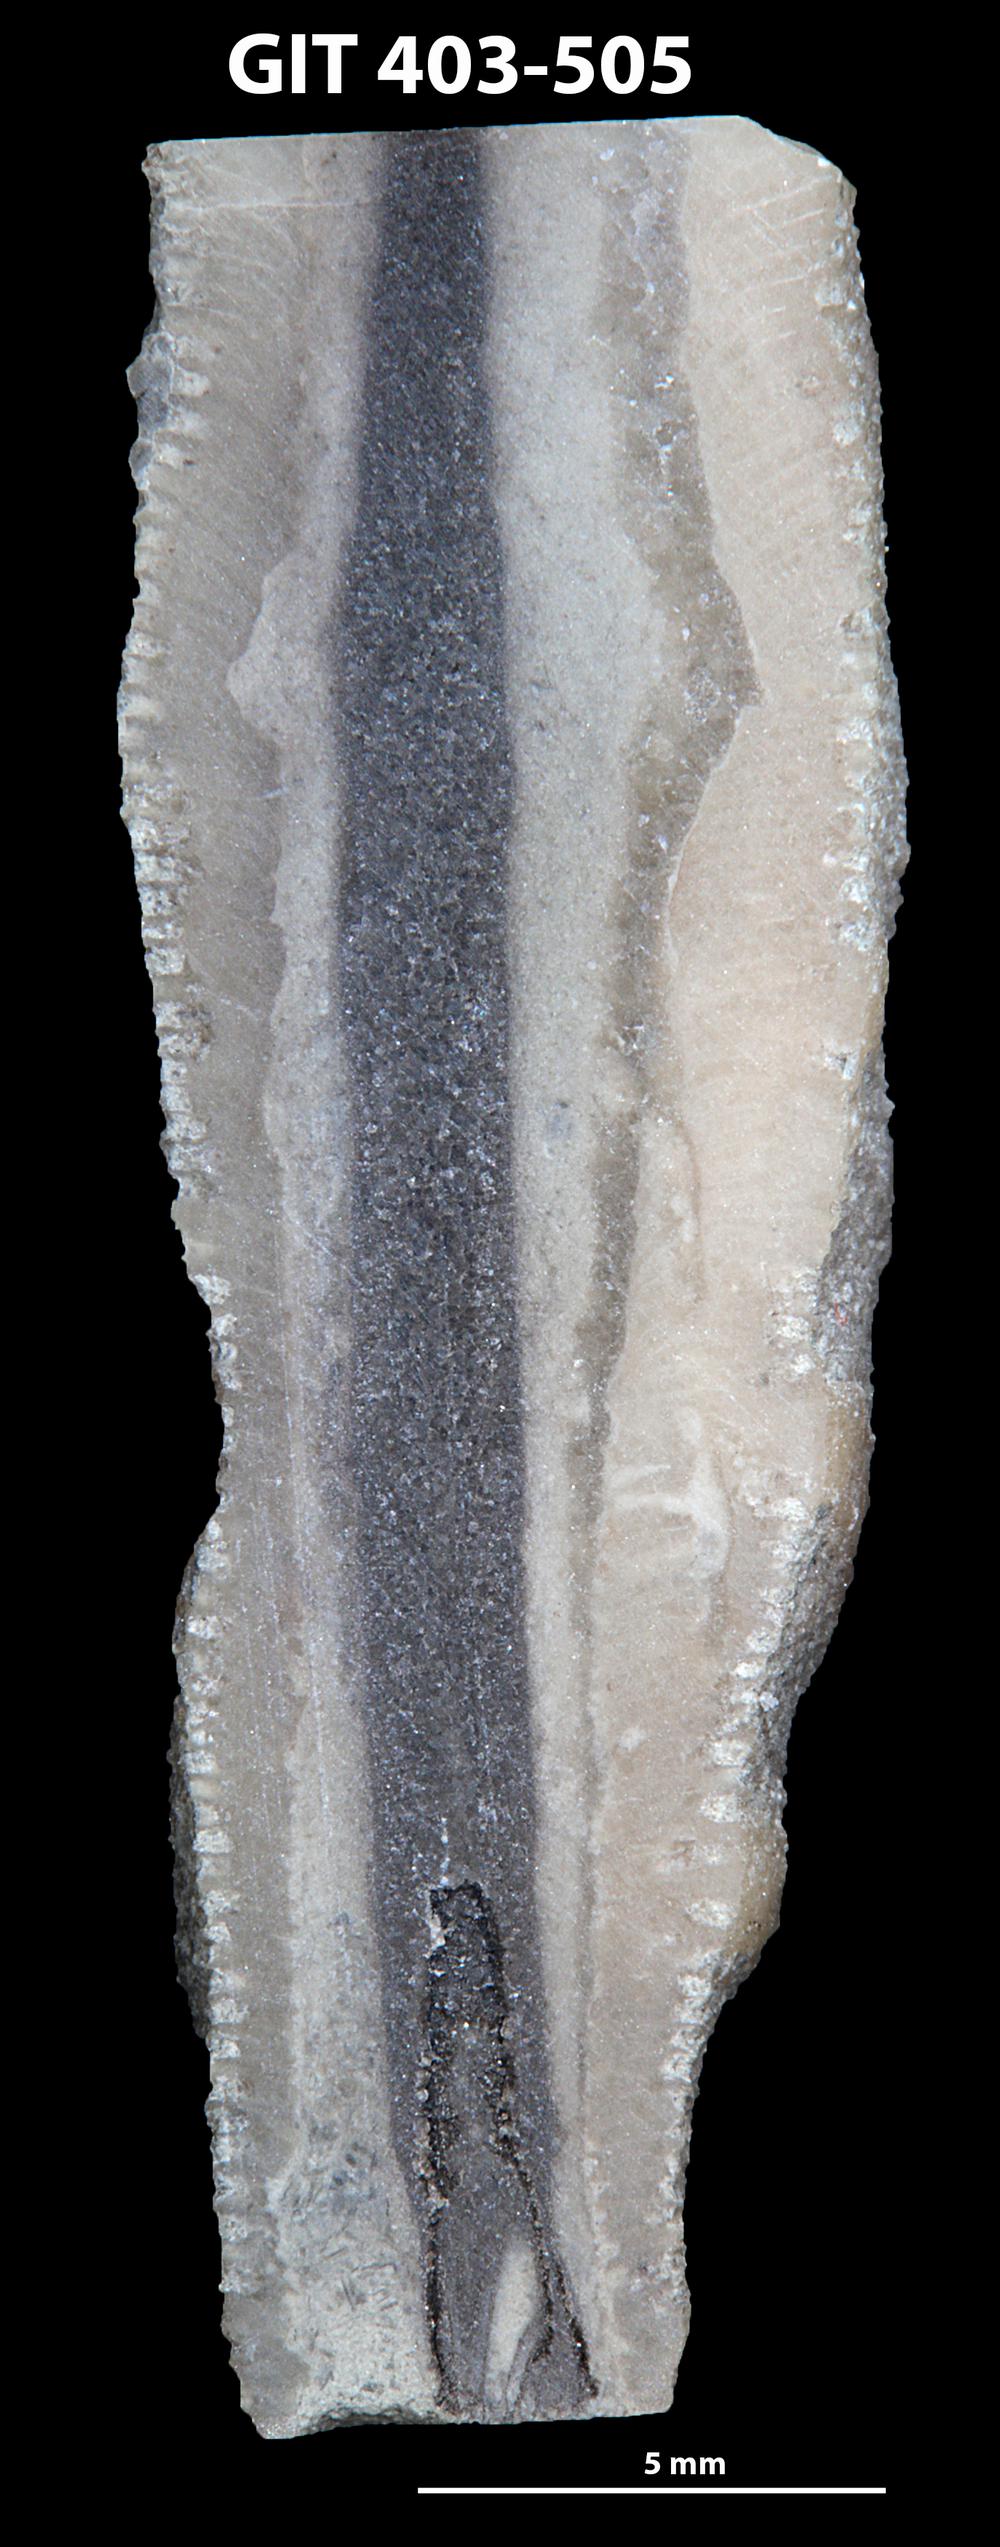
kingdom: Animalia
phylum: Bryozoa
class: Stenolaemata
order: Cystoporida
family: Fistuliporidae
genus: Fistulipora
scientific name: Fistulipora przhidolensis
